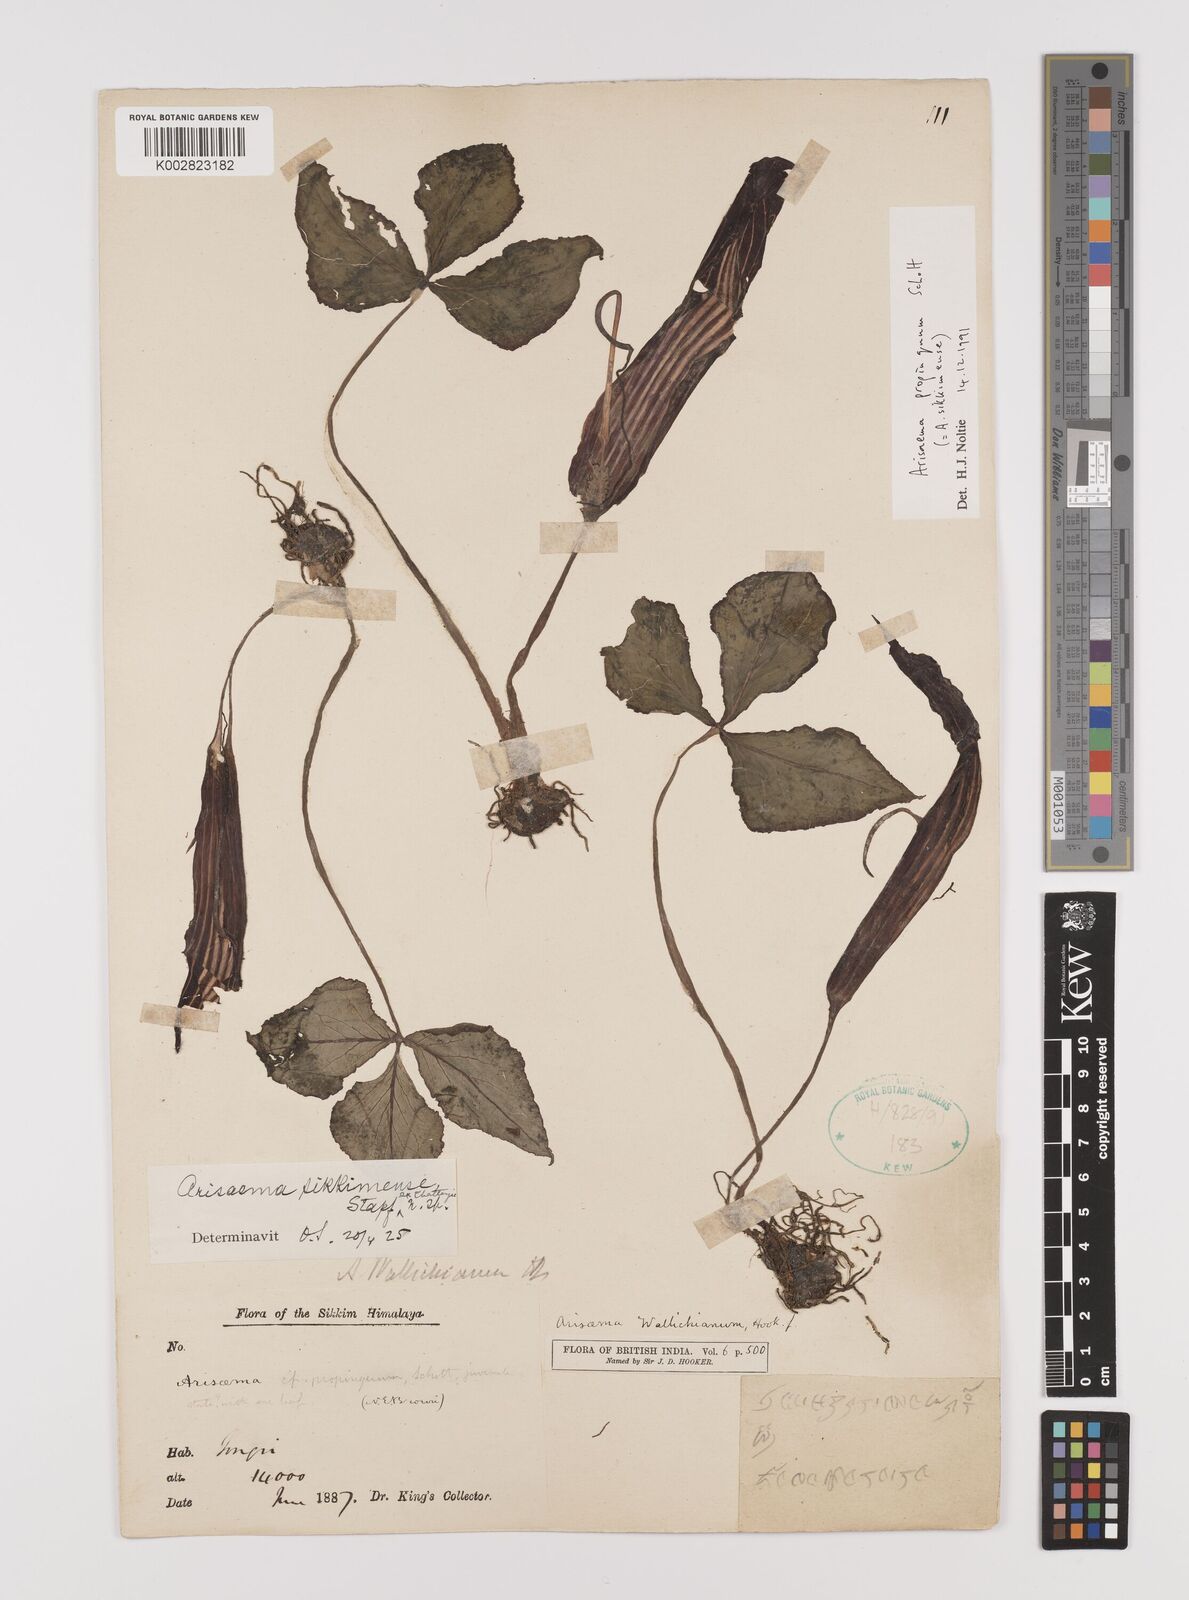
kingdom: Plantae
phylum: Tracheophyta
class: Liliopsida
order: Alismatales
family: Araceae
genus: Arisaema
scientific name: Arisaema propinquum
